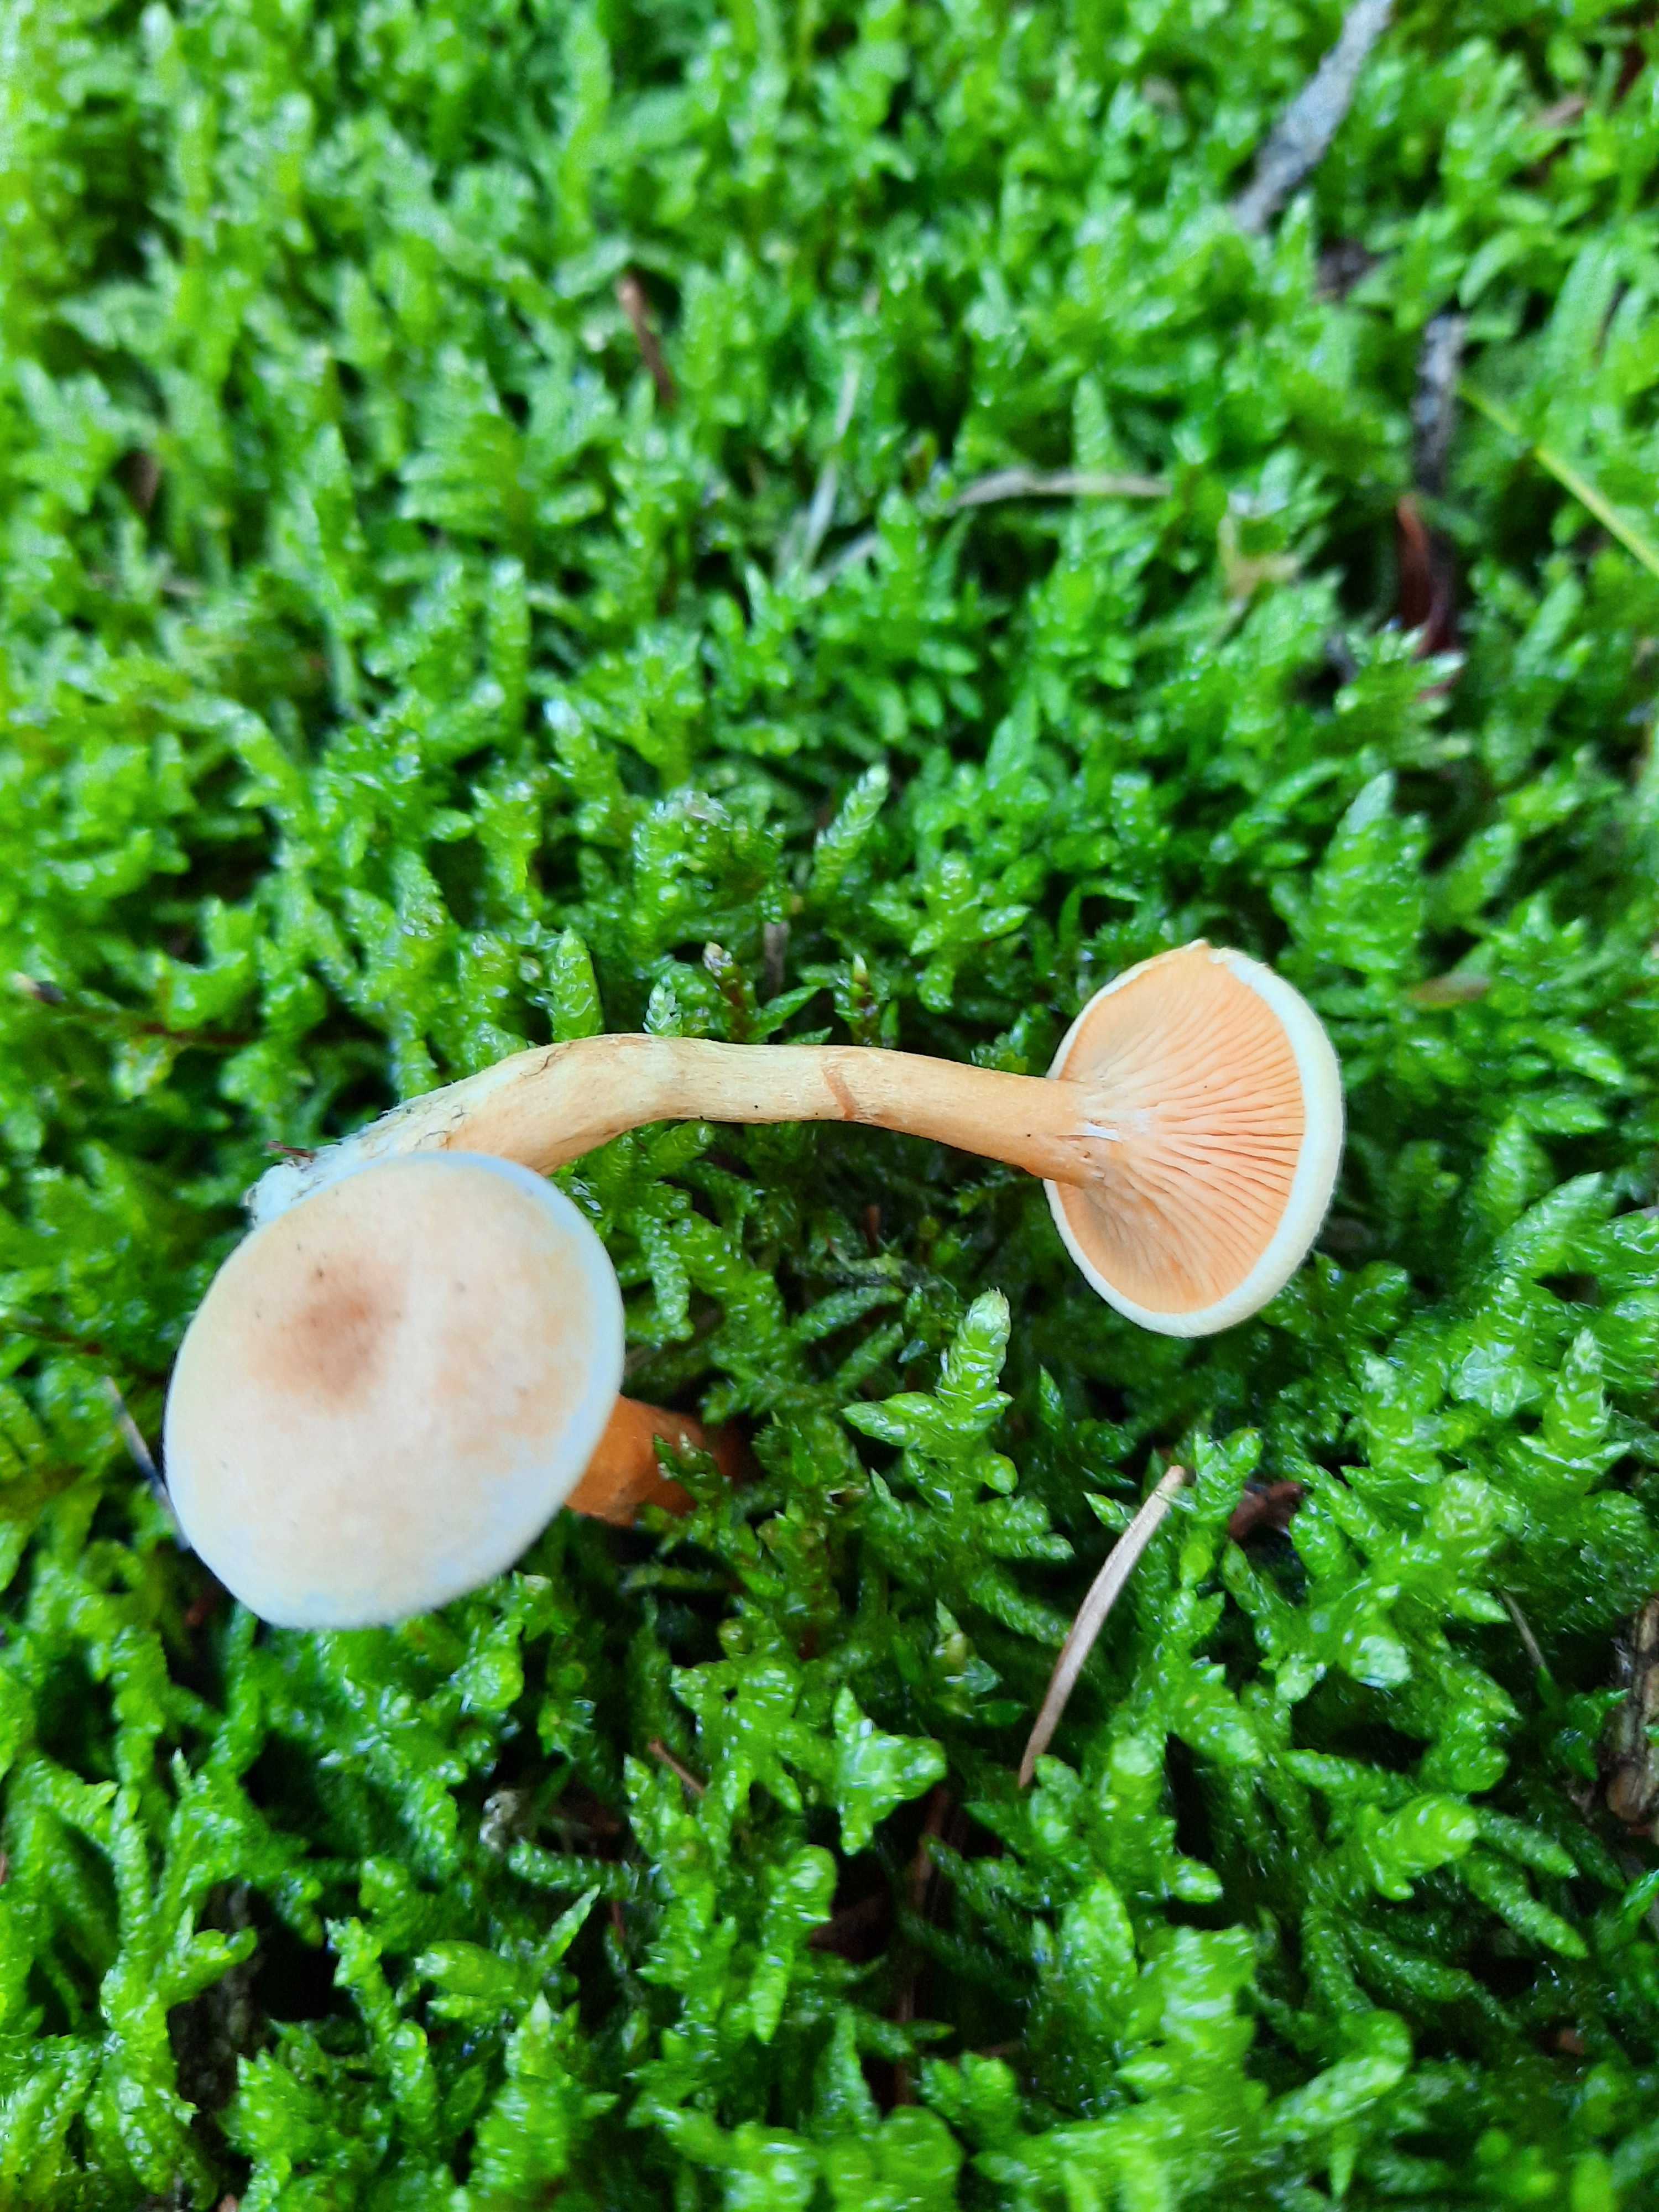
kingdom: Fungi
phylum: Basidiomycota
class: Agaricomycetes
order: Boletales
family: Hygrophoropsidaceae
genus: Hygrophoropsis
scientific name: Hygrophoropsis aurantiaca
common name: almindelig orangekantarel
